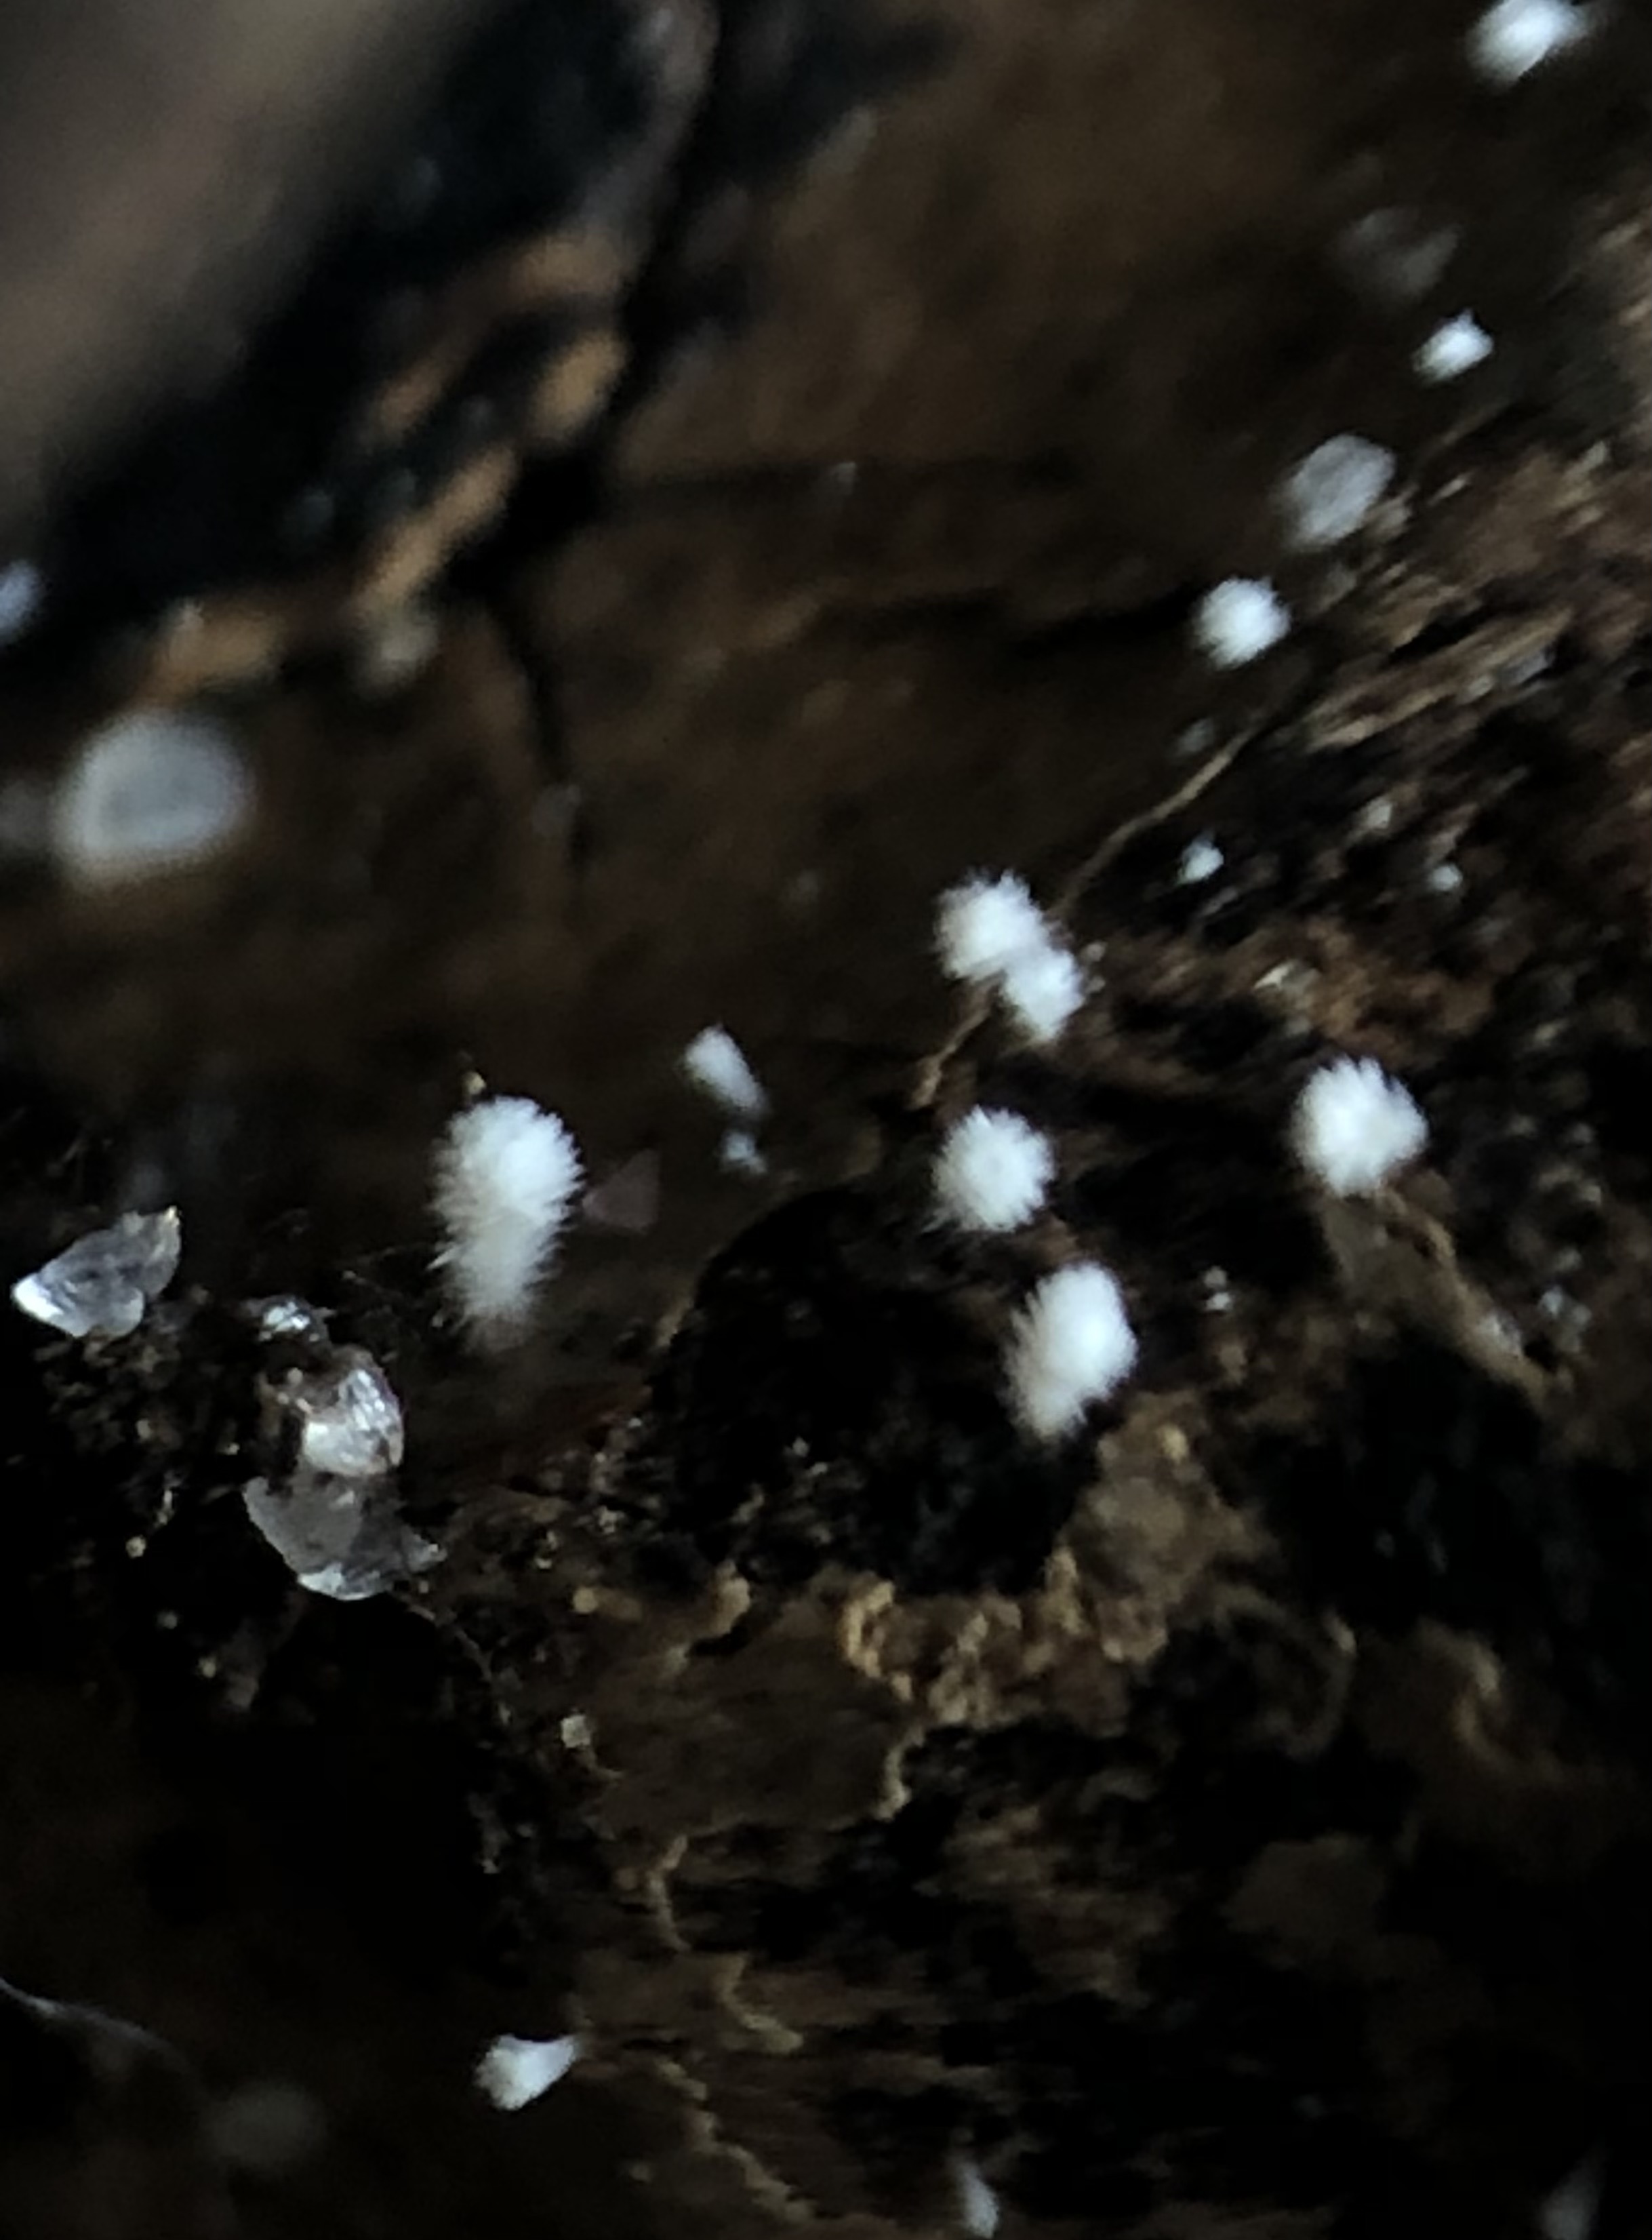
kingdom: Fungi
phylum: Ascomycota
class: Leotiomycetes
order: Helotiales
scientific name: Helotiales
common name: stilkskiveordenen
